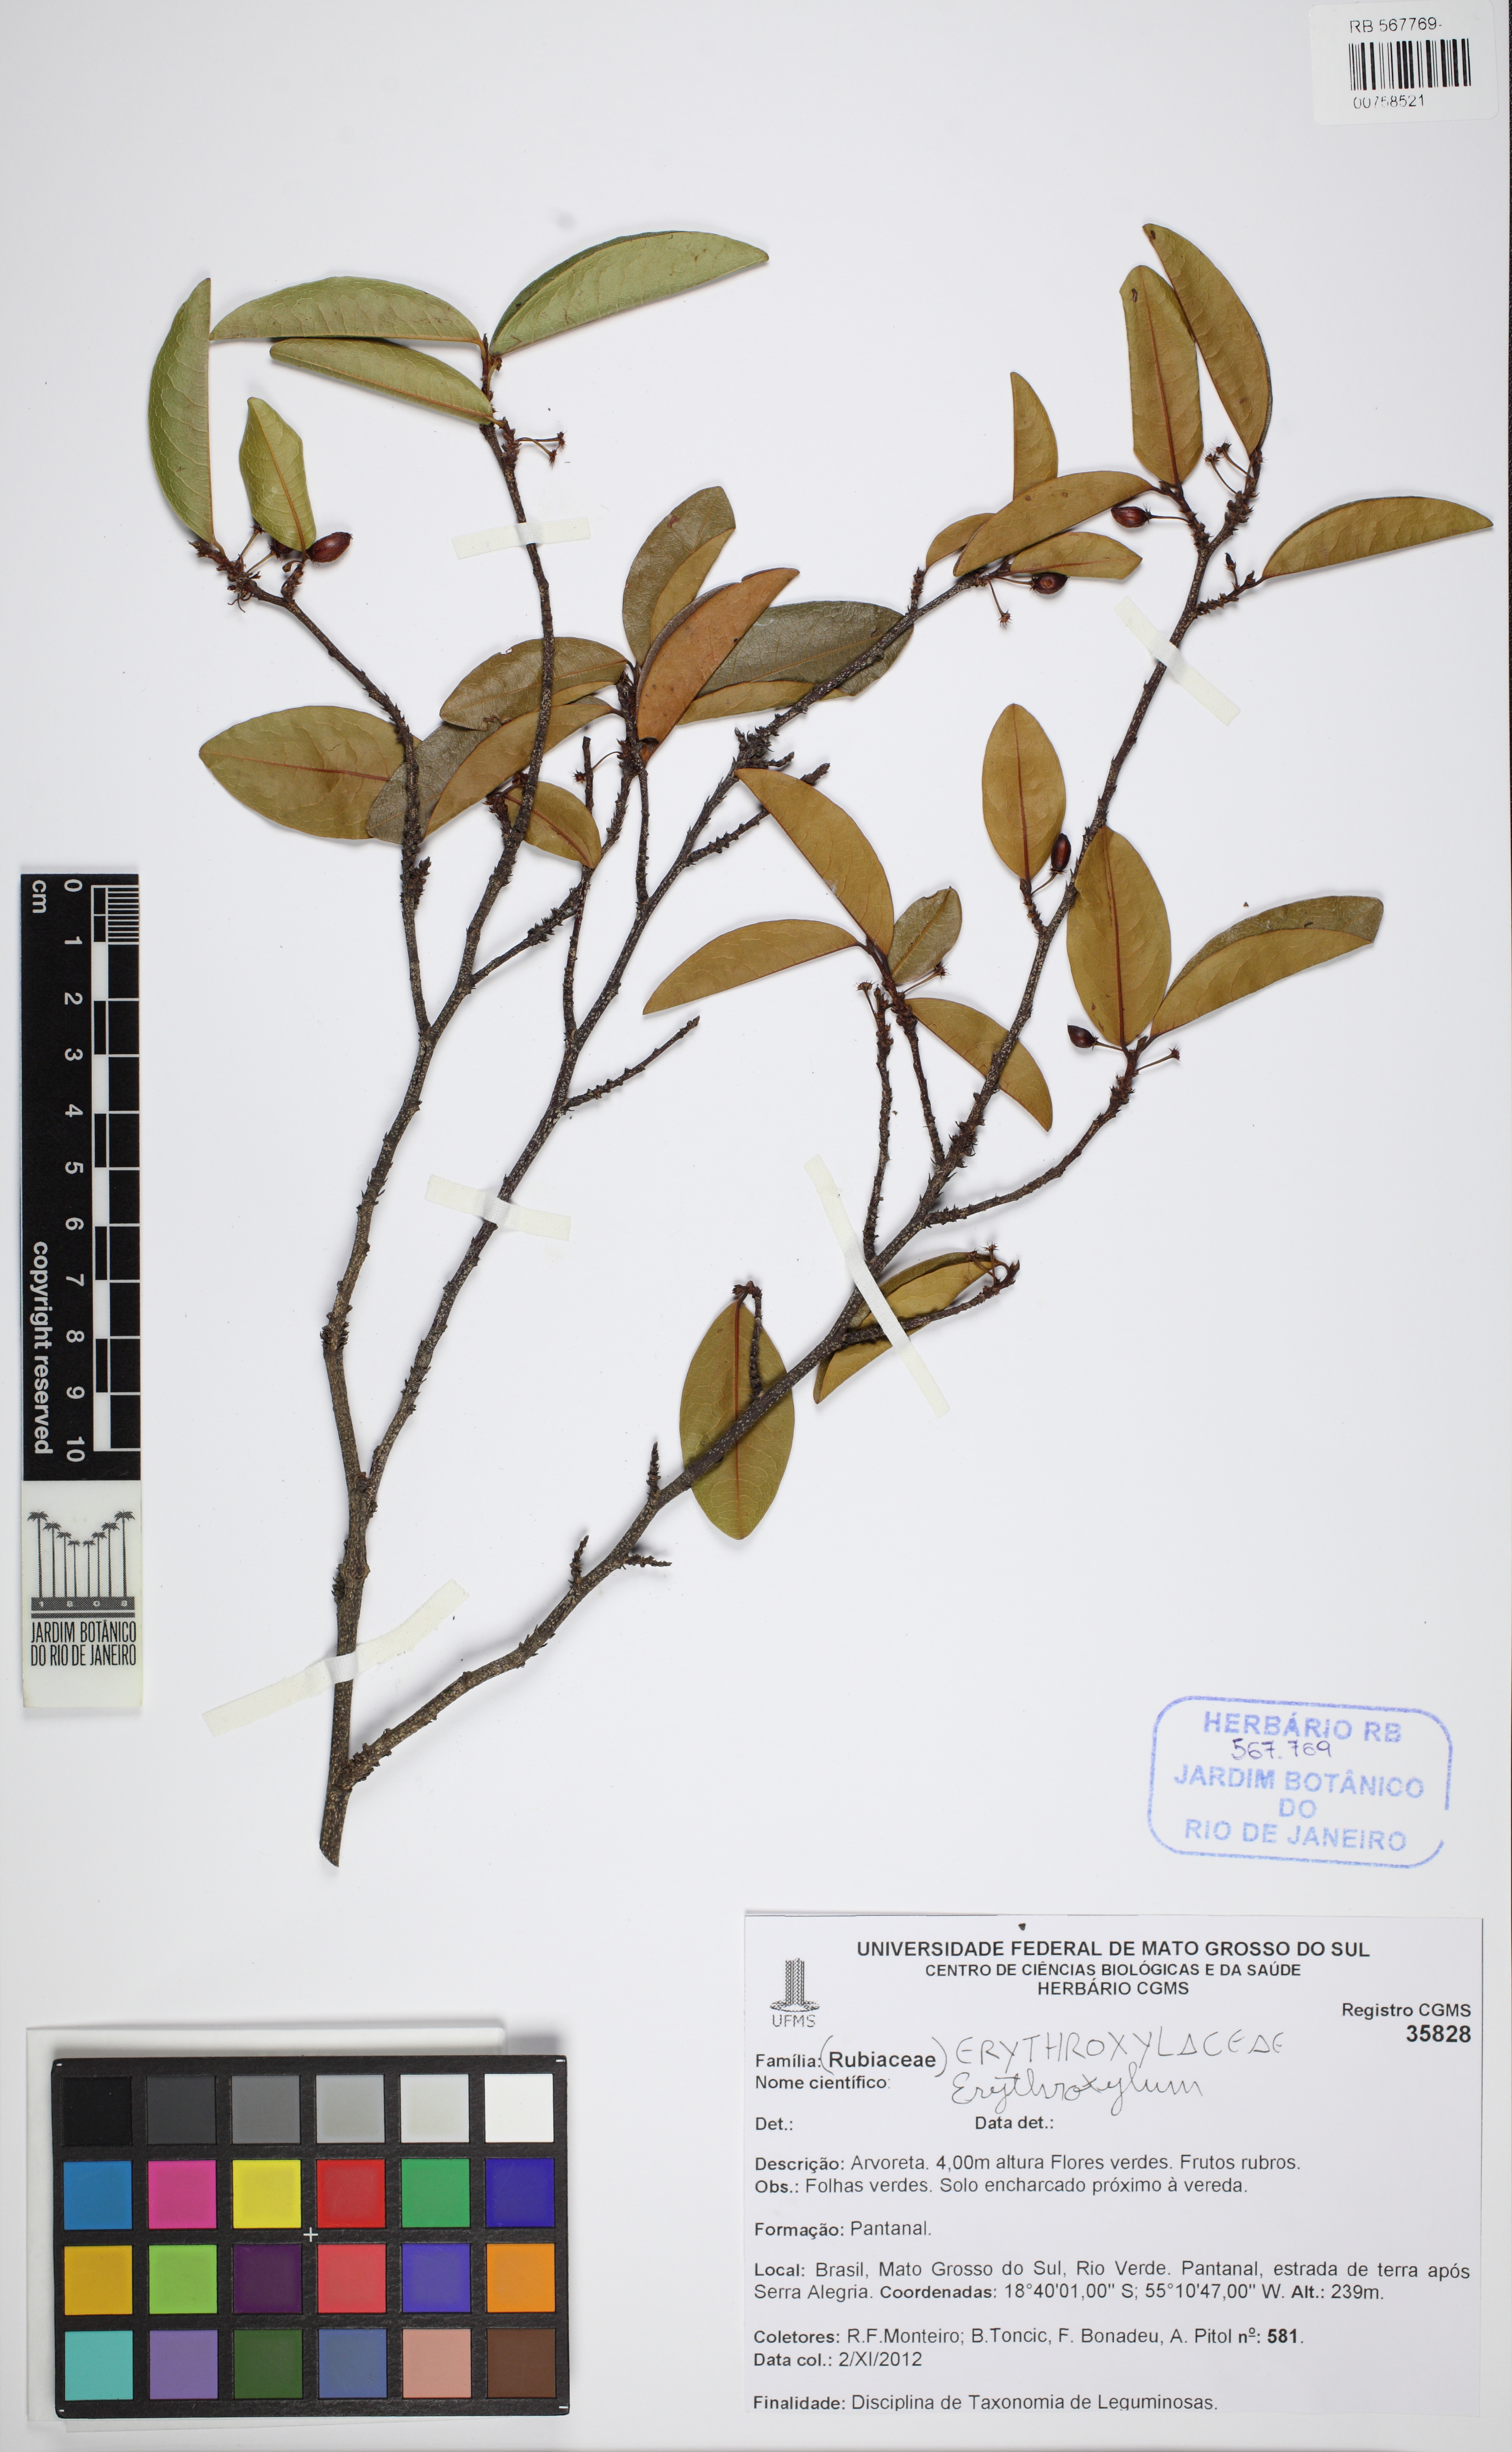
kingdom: Plantae
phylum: Tracheophyta
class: Magnoliopsida
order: Malpighiales
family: Erythroxylaceae
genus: Erythroxylum
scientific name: Erythroxylum anguifugum
